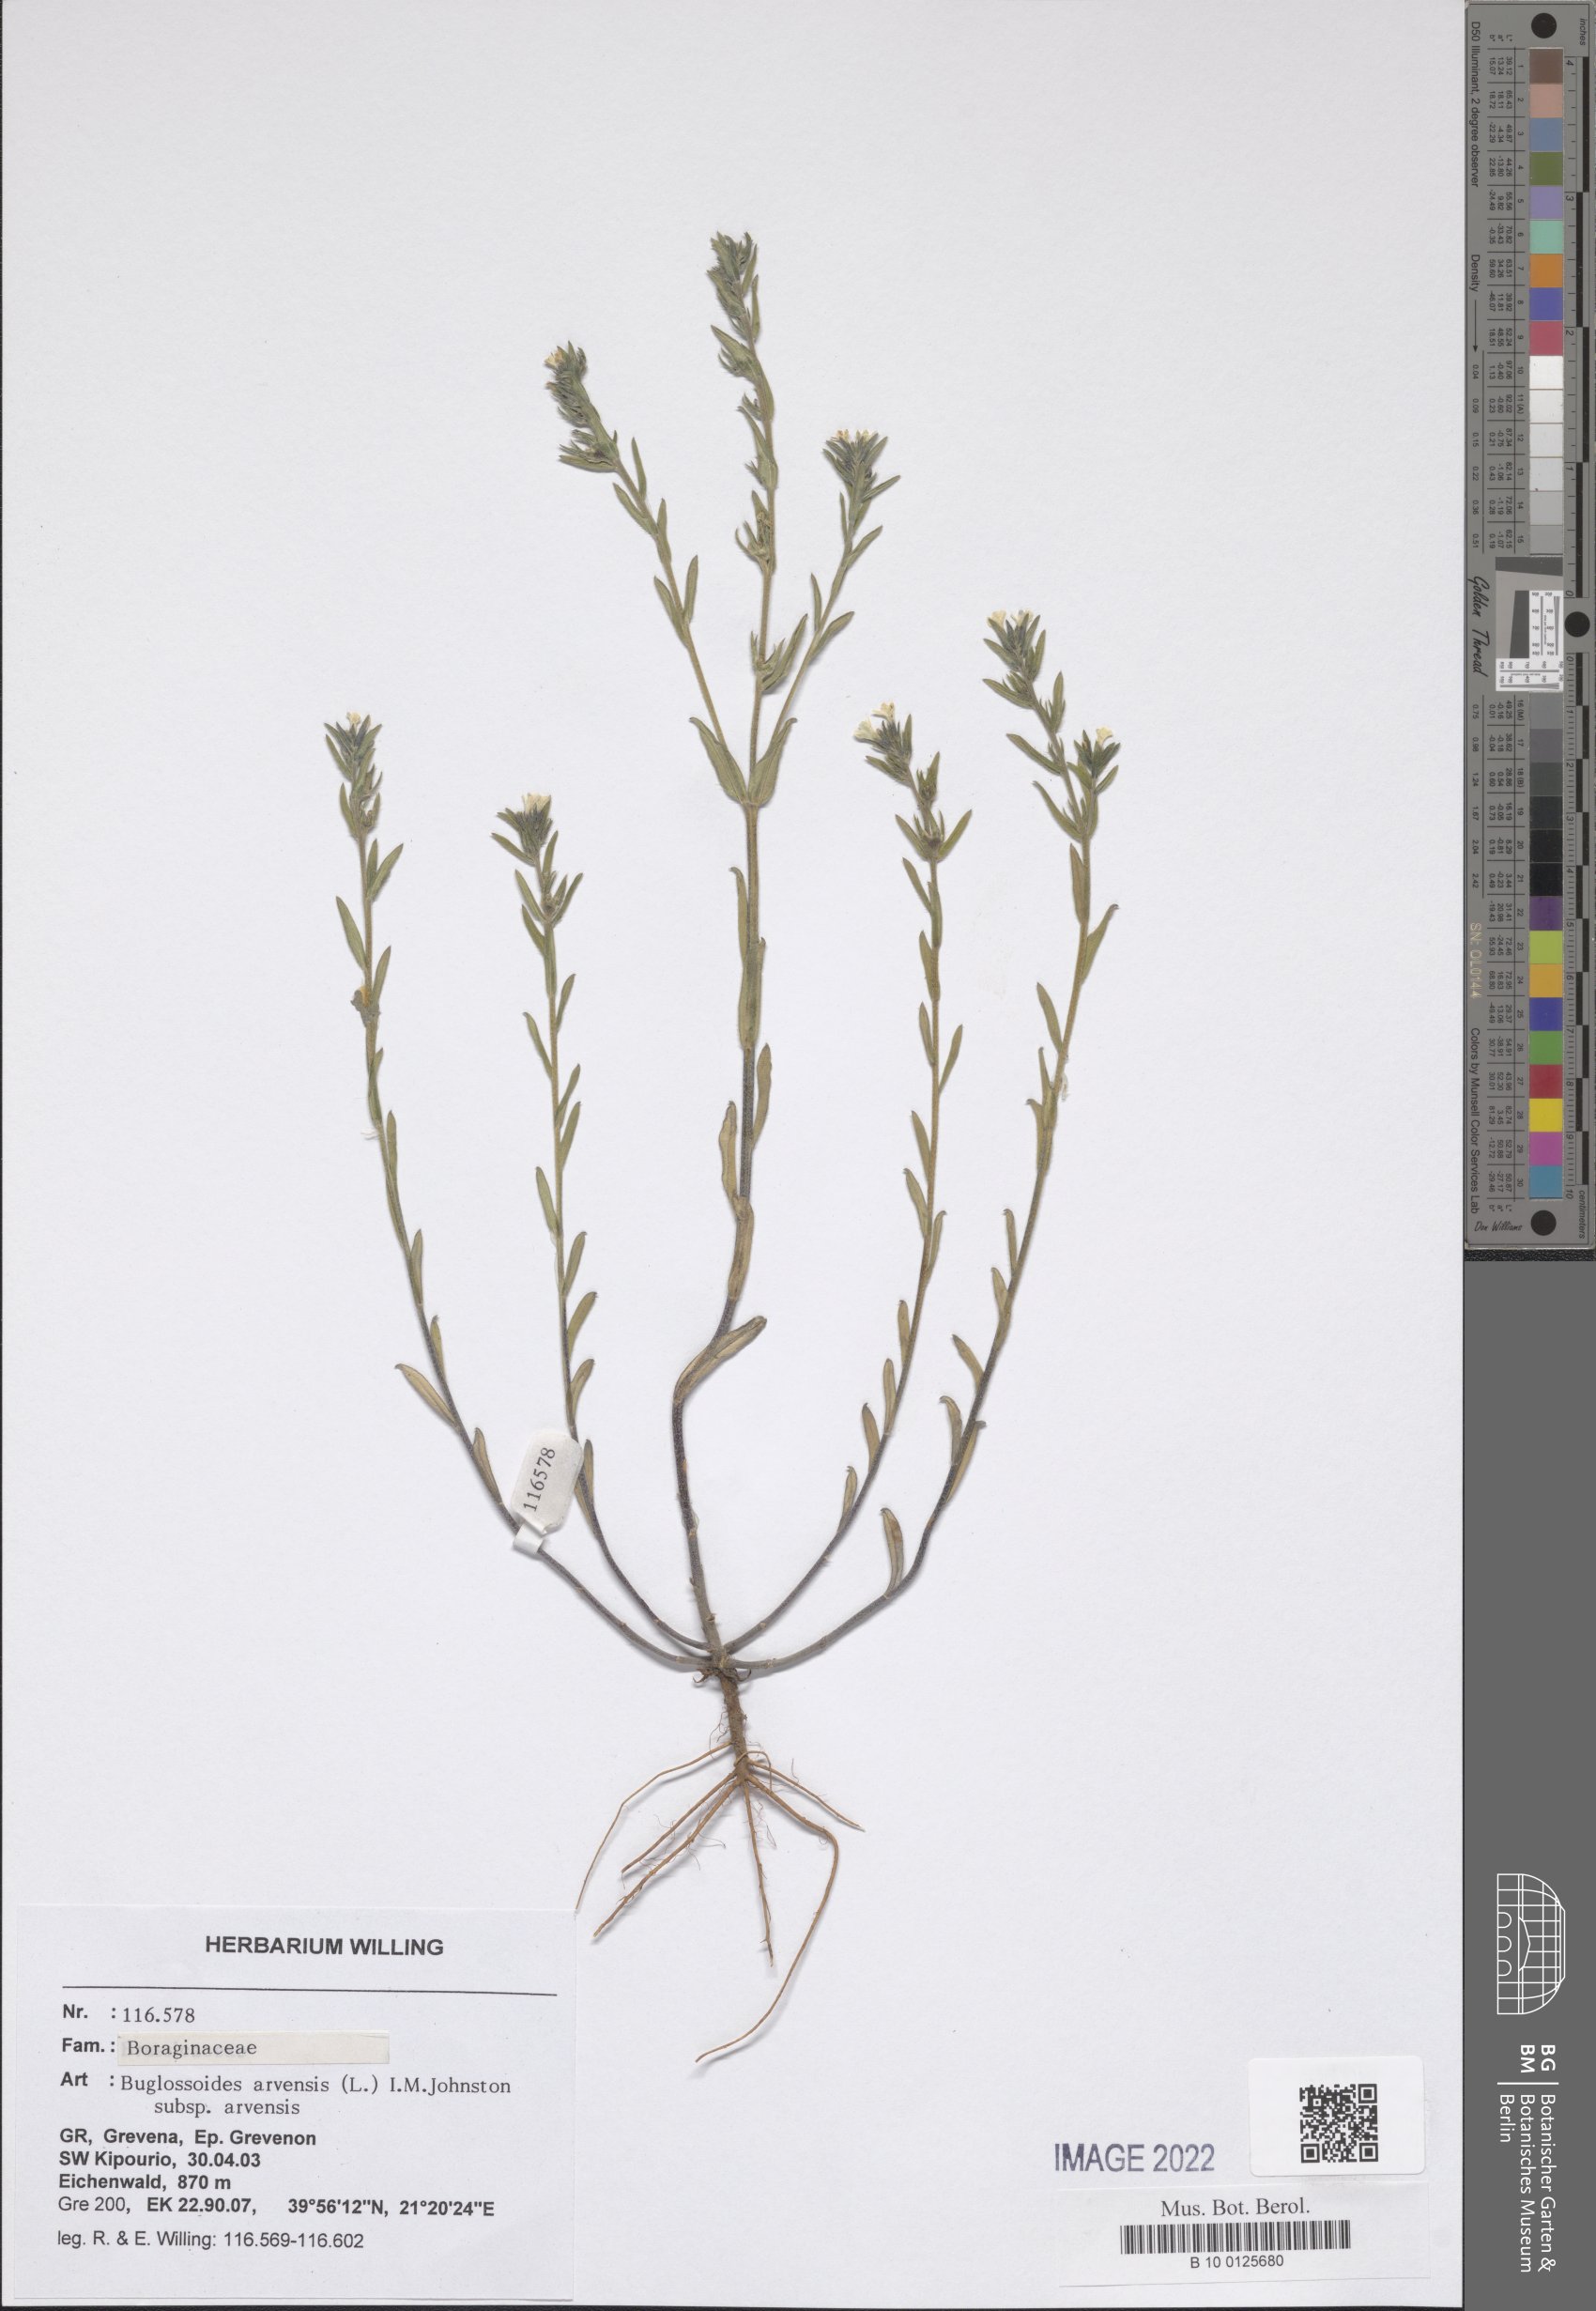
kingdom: Plantae
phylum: Tracheophyta
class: Magnoliopsida
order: Boraginales
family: Boraginaceae
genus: Buglossoides
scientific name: Buglossoides arvensis
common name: Corn gromwell
